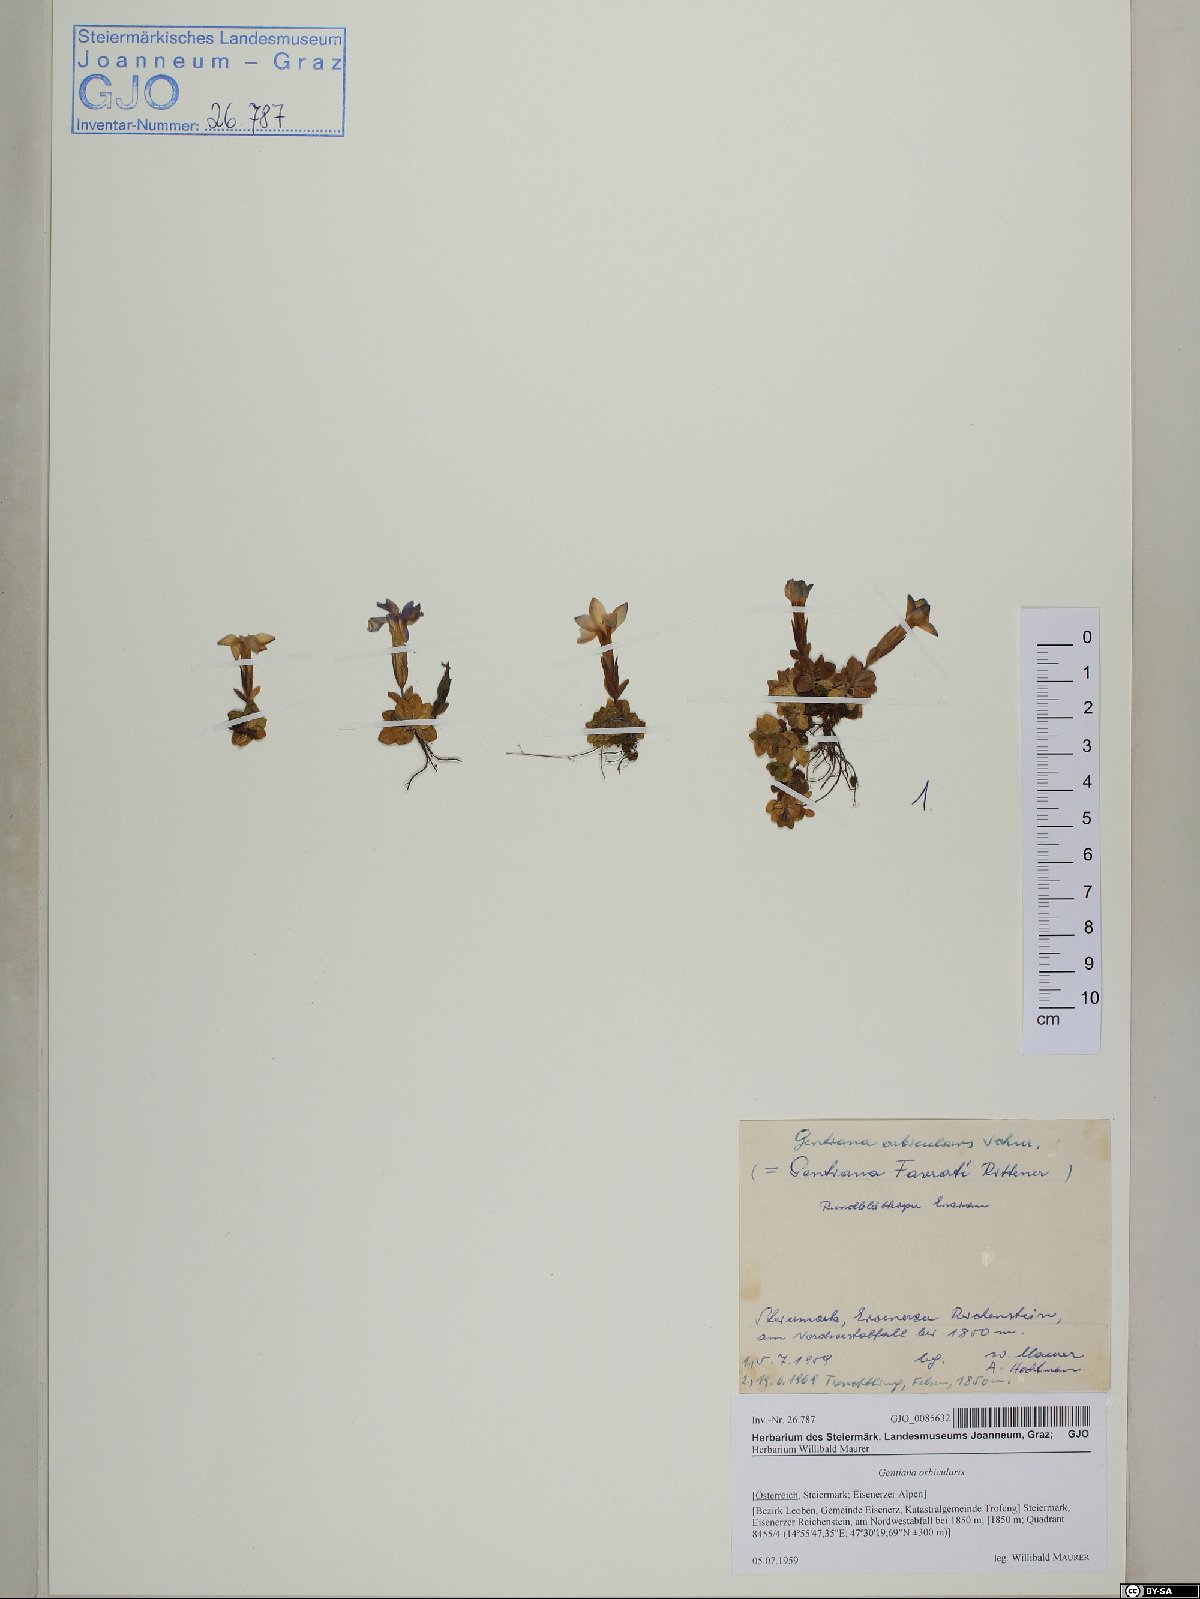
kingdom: Plantae
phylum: Tracheophyta
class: Magnoliopsida
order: Gentianales
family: Gentianaceae
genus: Gentiana
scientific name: Gentiana orbicularis
